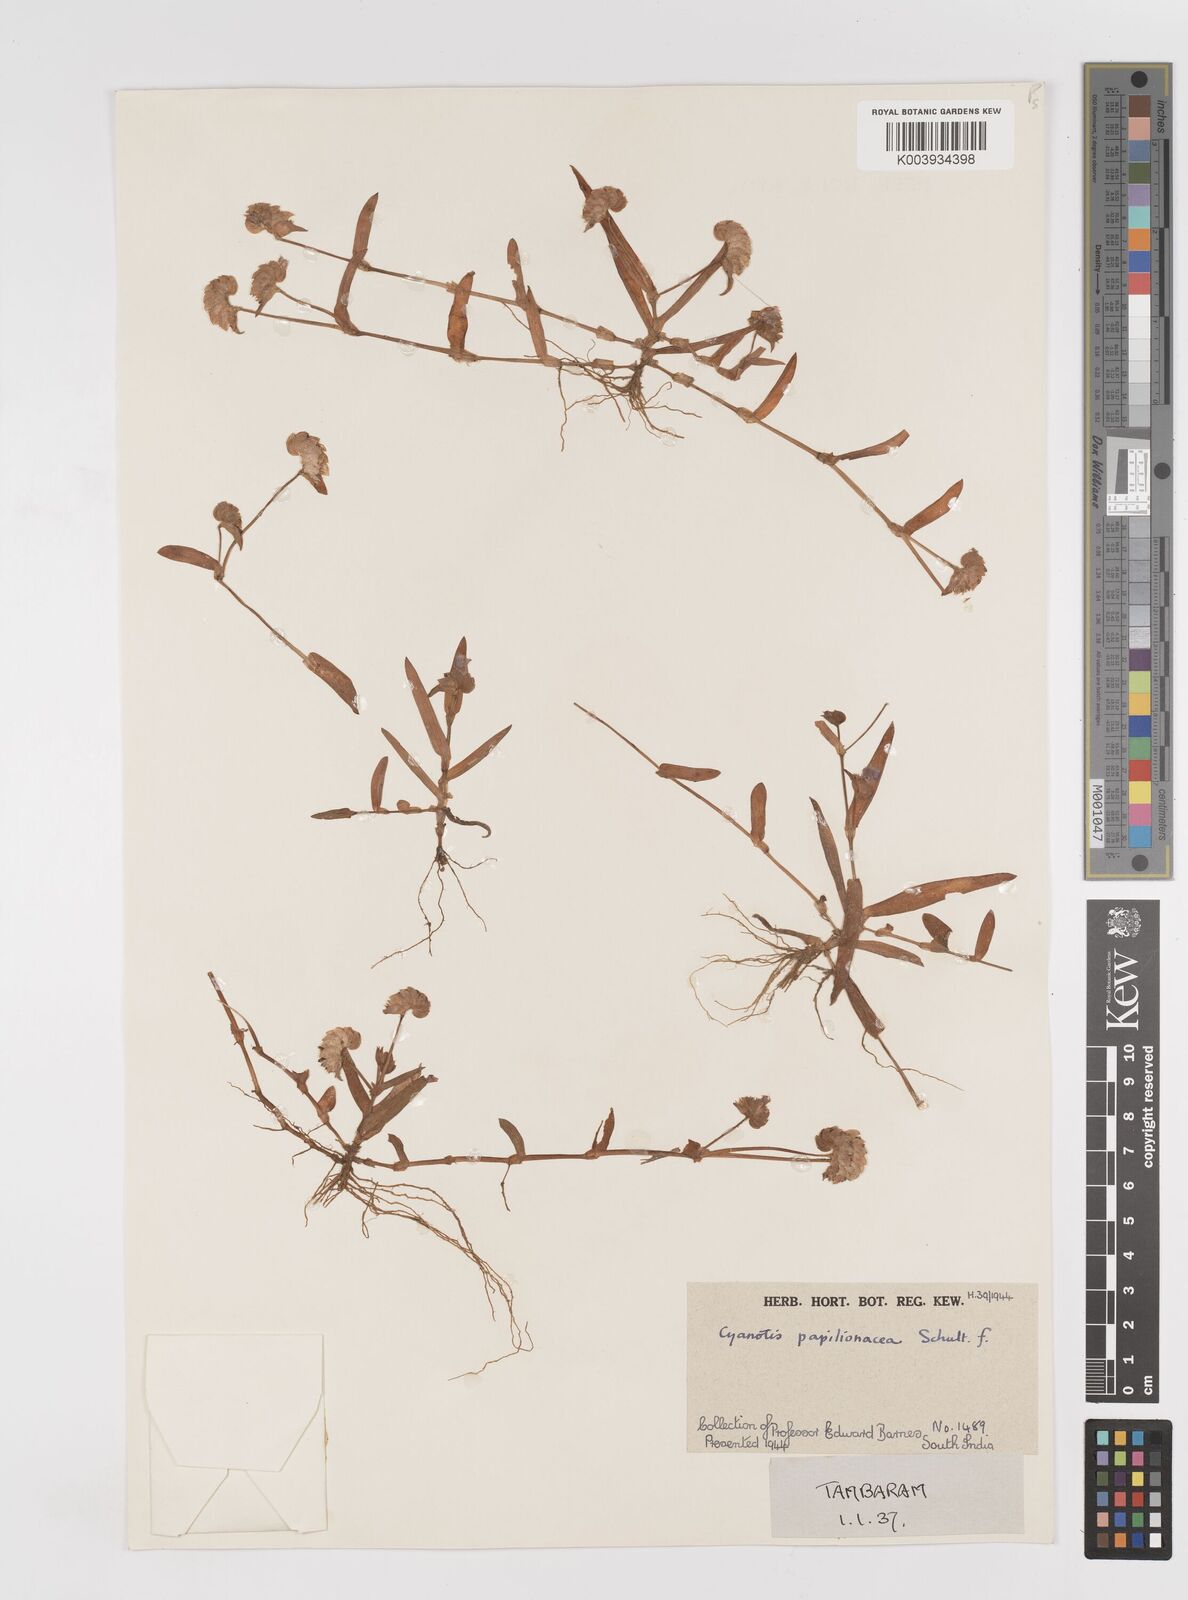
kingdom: Plantae
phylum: Tracheophyta
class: Liliopsida
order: Commelinales
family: Commelinaceae
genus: Cyanotis
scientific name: Cyanotis cristata
